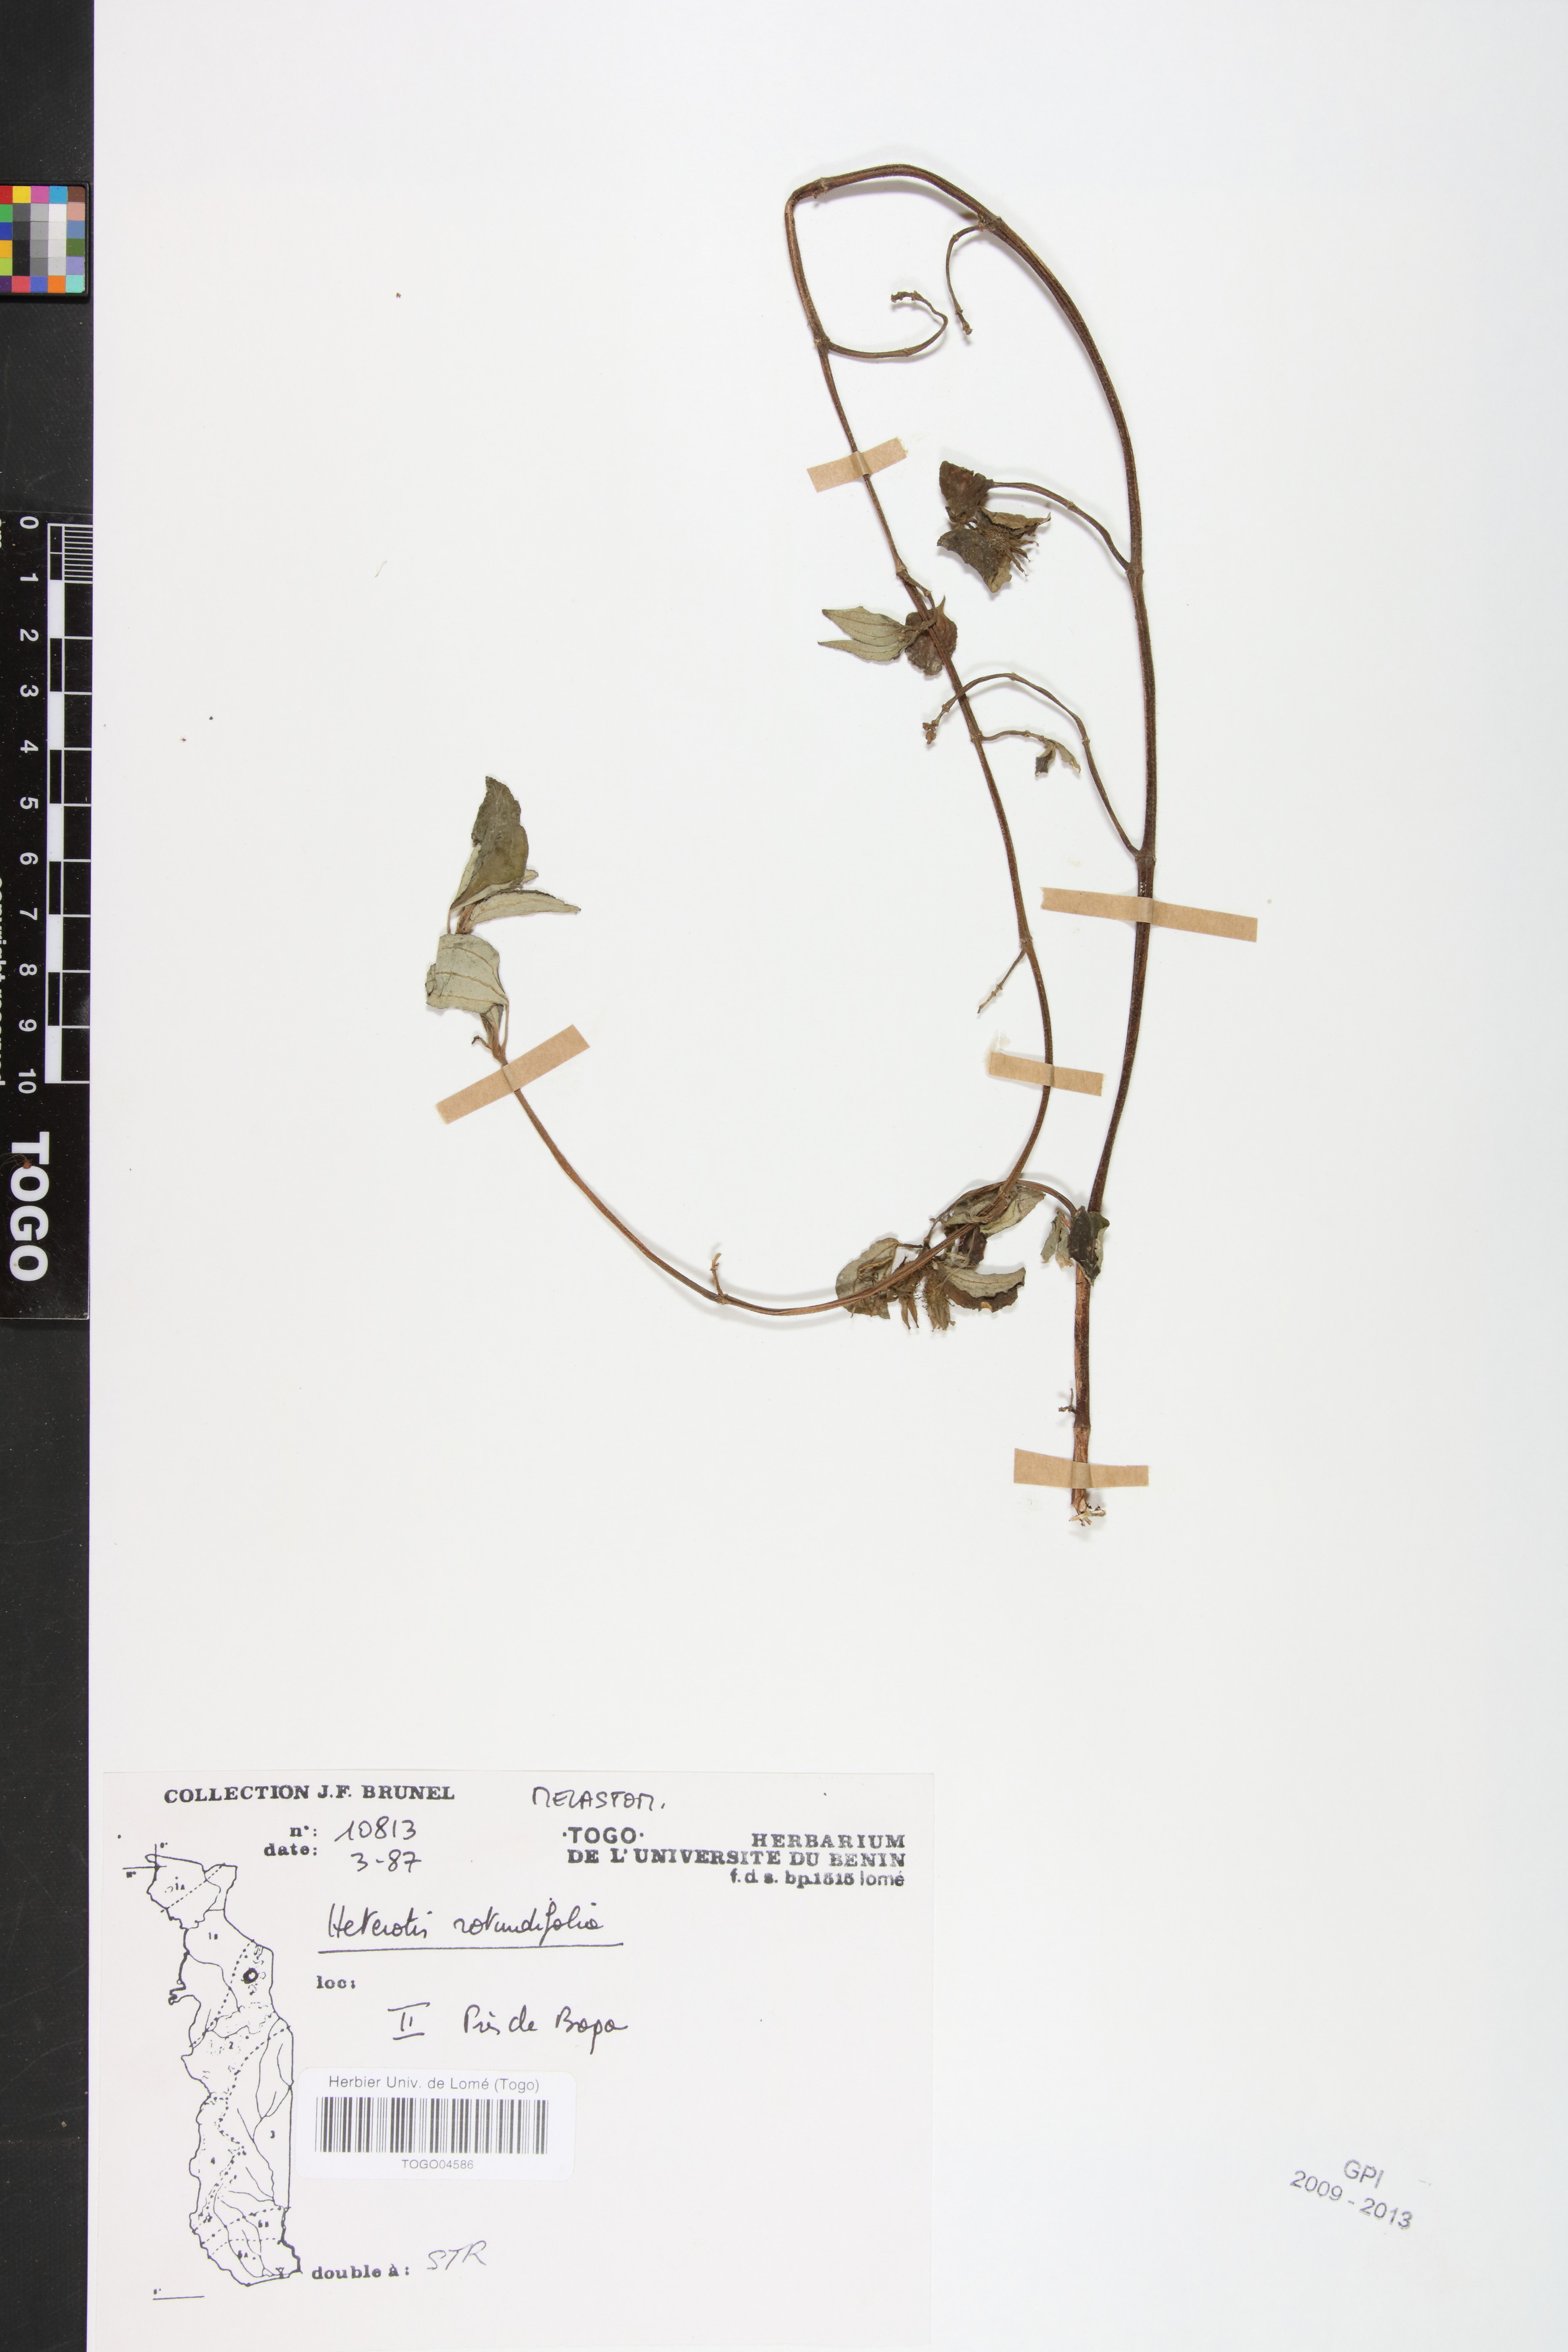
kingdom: Plantae
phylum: Tracheophyta
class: Magnoliopsida
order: Myrtales
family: Melastomataceae
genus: Heterotis
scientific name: Heterotis rotundifolia
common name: Pinklady
